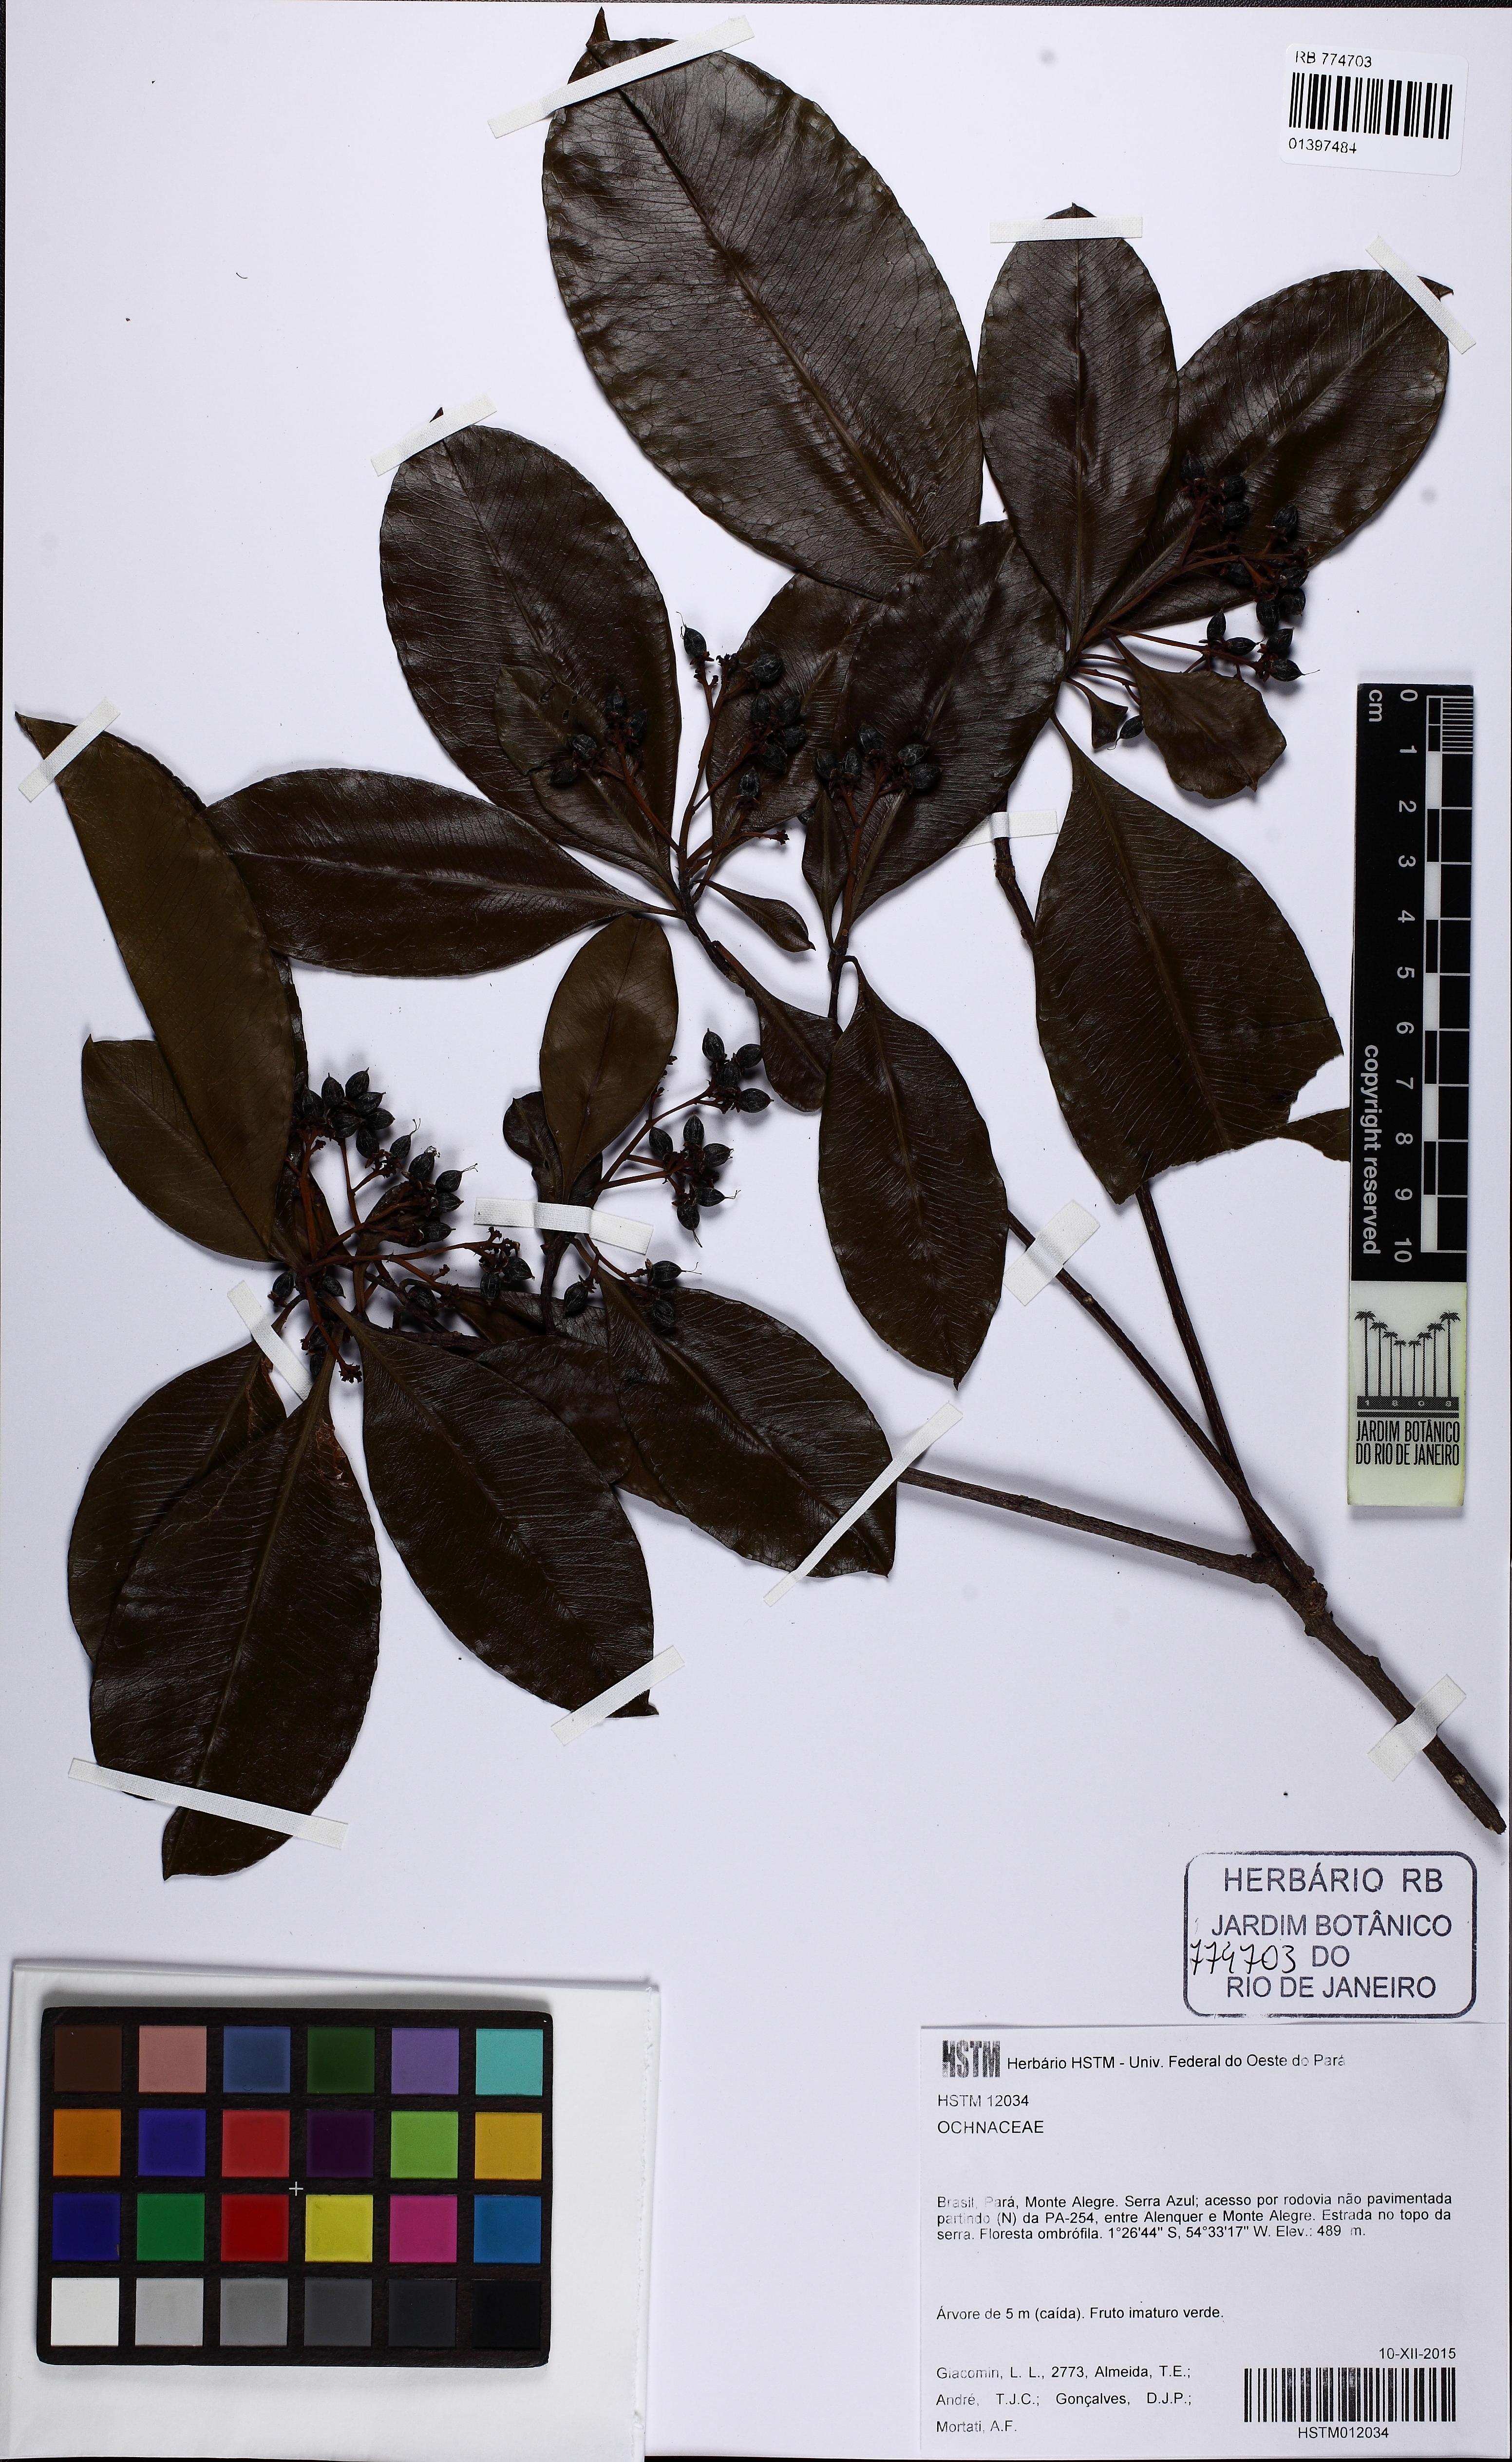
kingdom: Plantae
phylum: Tracheophyta
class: Magnoliopsida
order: Malpighiales
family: Linaceae
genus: Hebepetalum
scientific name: Hebepetalum
